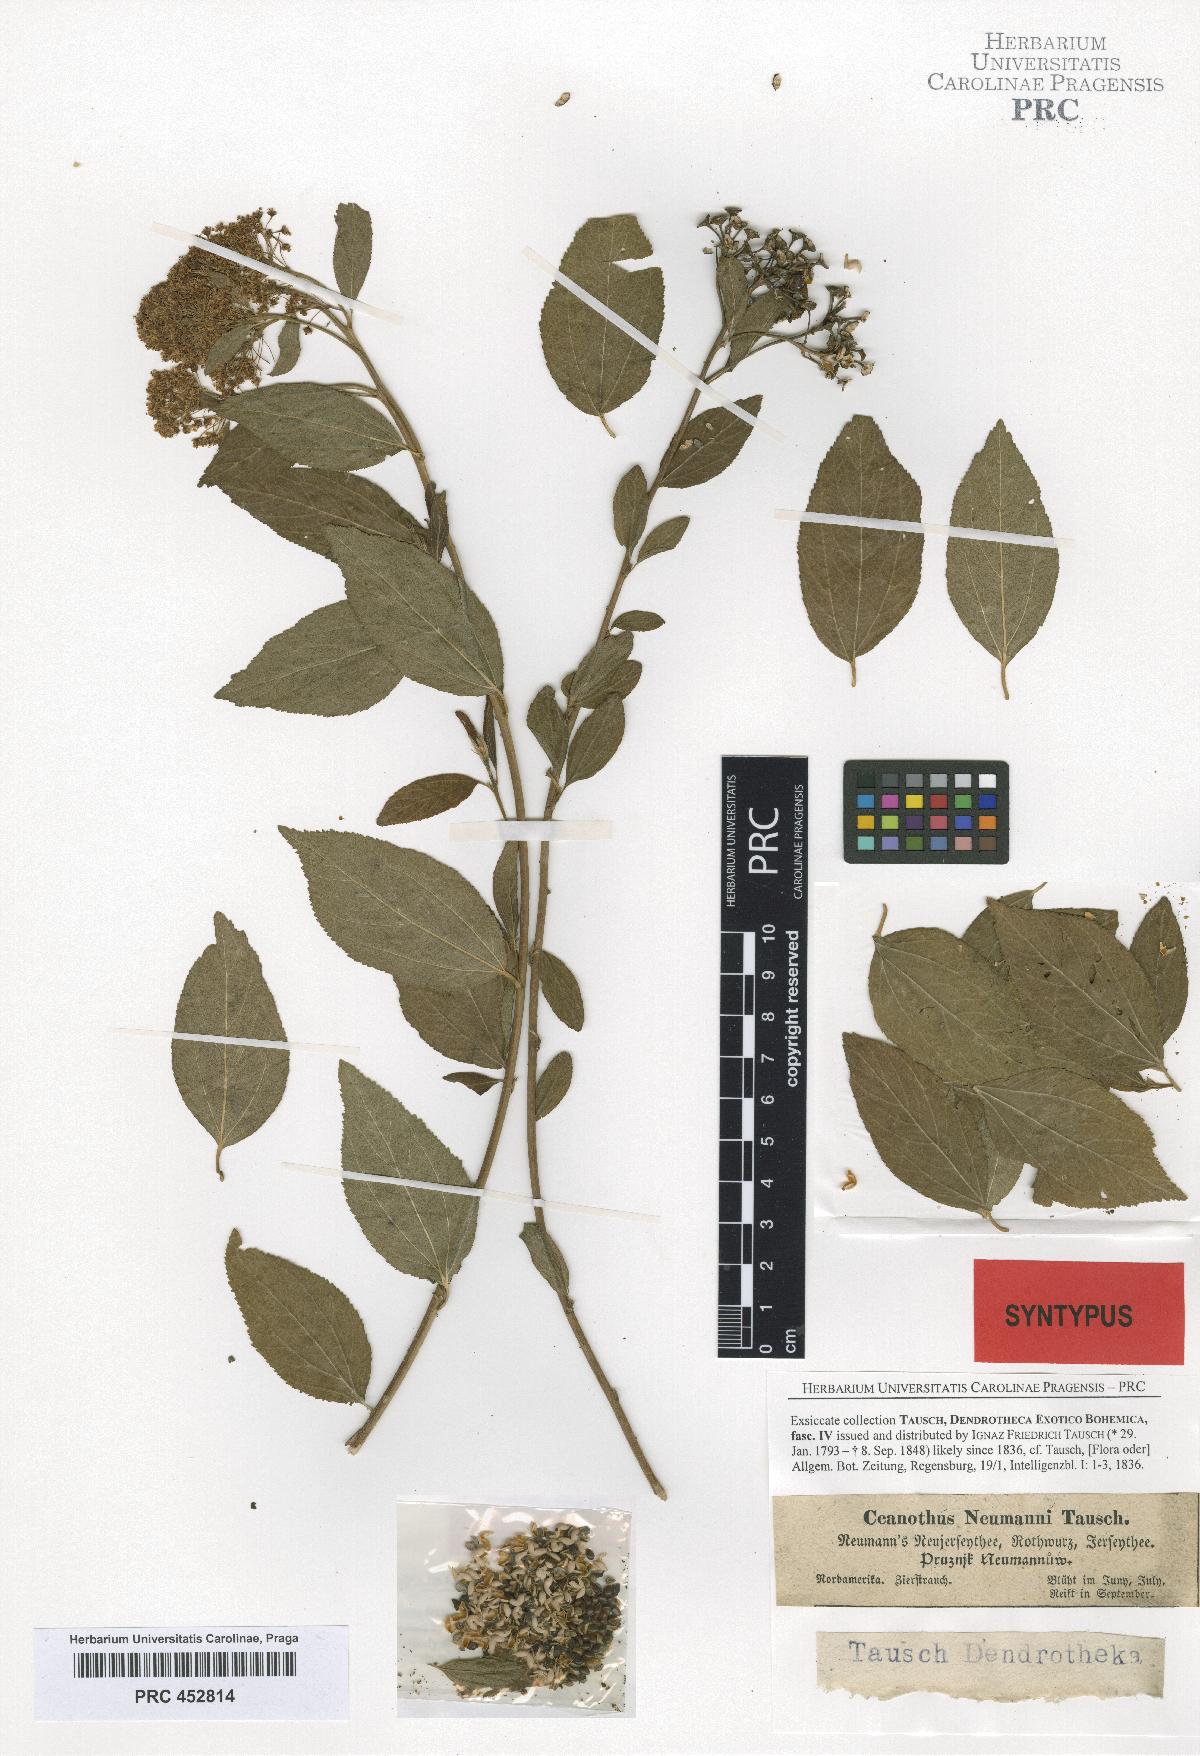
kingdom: Plantae
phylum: Tracheophyta
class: Magnoliopsida
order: Rosales
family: Rhamnaceae
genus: Ceanothus
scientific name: Ceanothus neumannii
